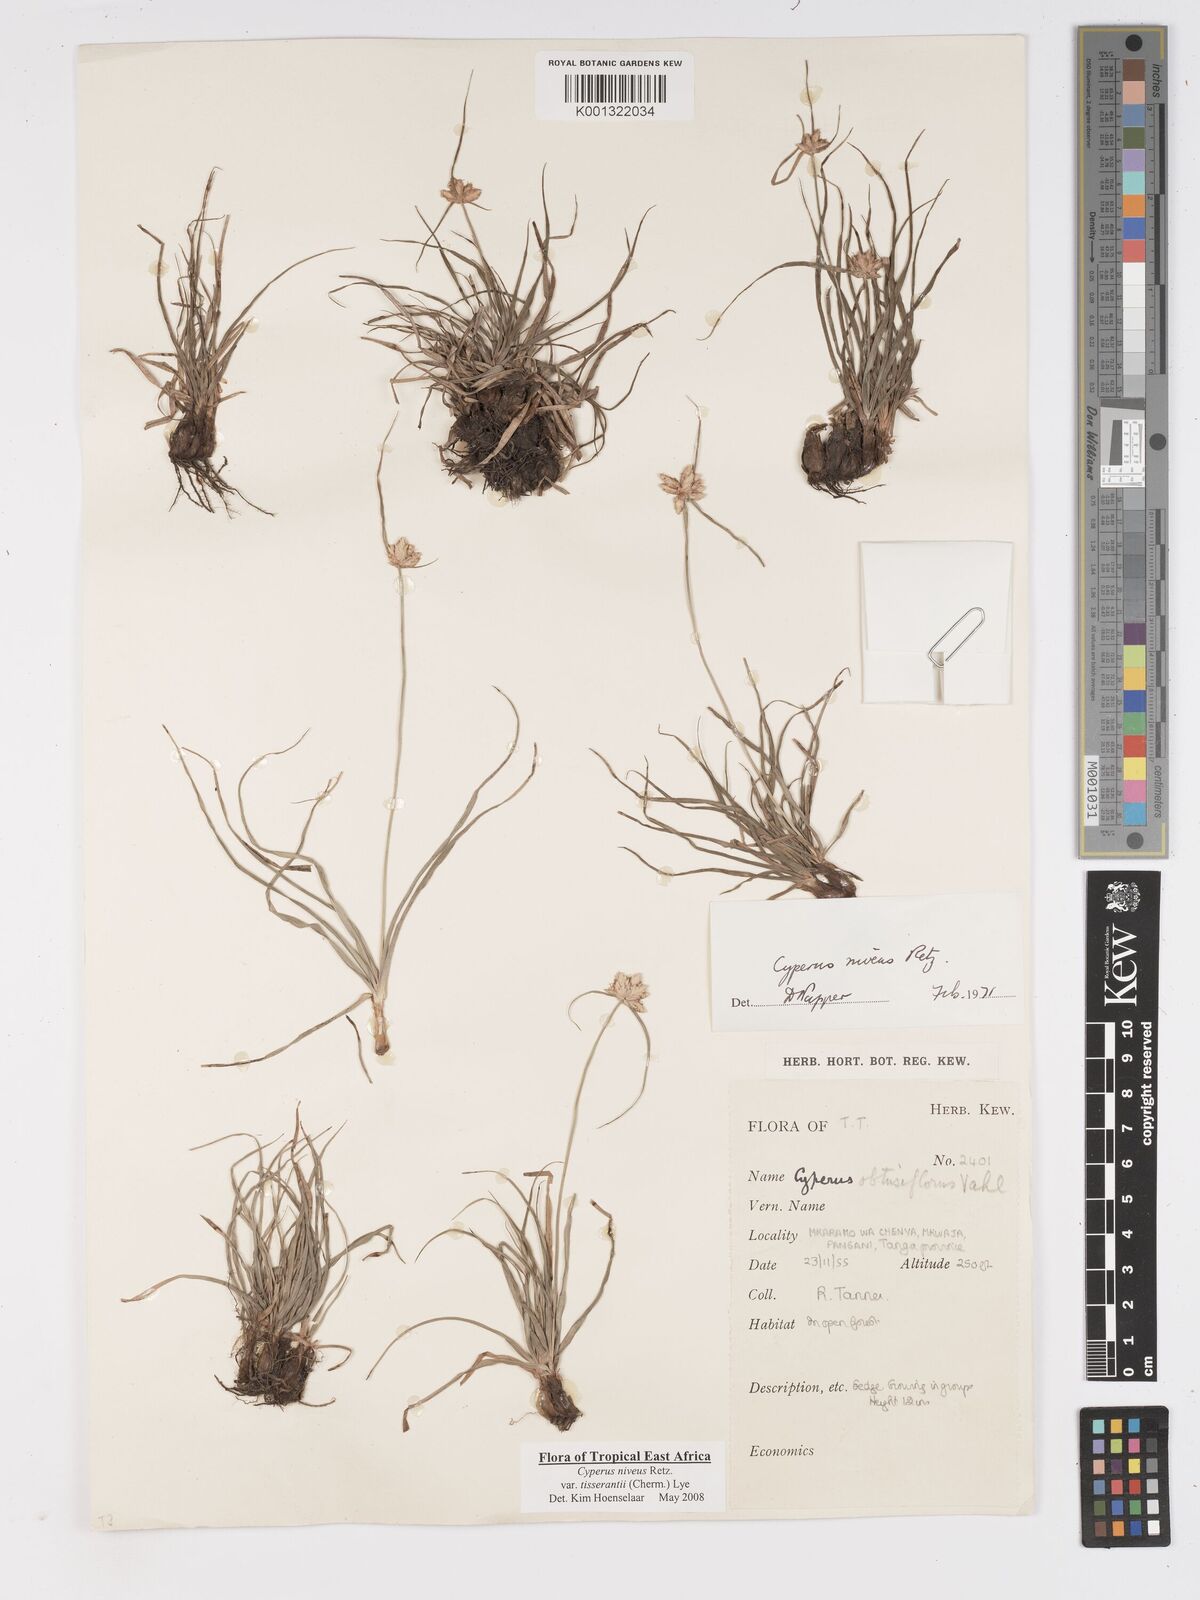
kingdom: Plantae
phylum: Tracheophyta
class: Liliopsida
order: Poales
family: Cyperaceae
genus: Cyperus
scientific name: Cyperus niveus
